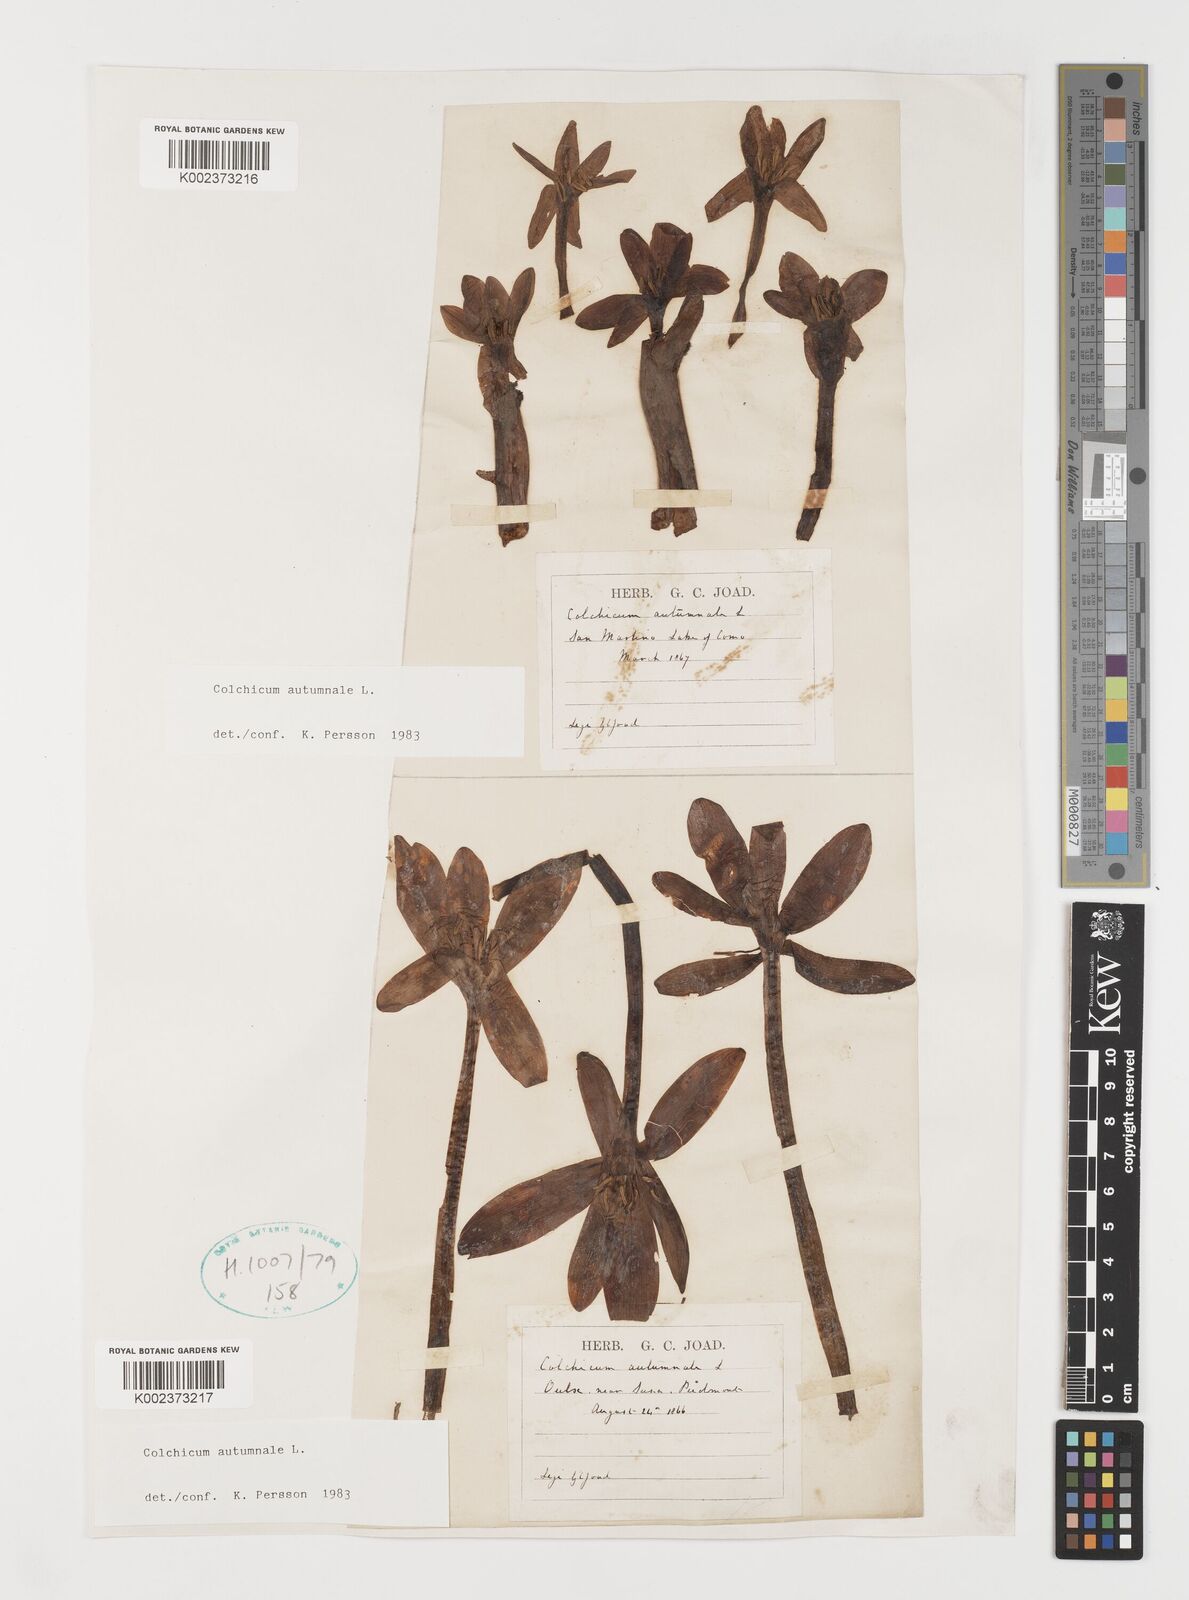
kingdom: Plantae
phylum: Tracheophyta
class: Liliopsida
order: Liliales
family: Colchicaceae
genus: Colchicum
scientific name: Colchicum autumnale
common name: Autumn crocus
